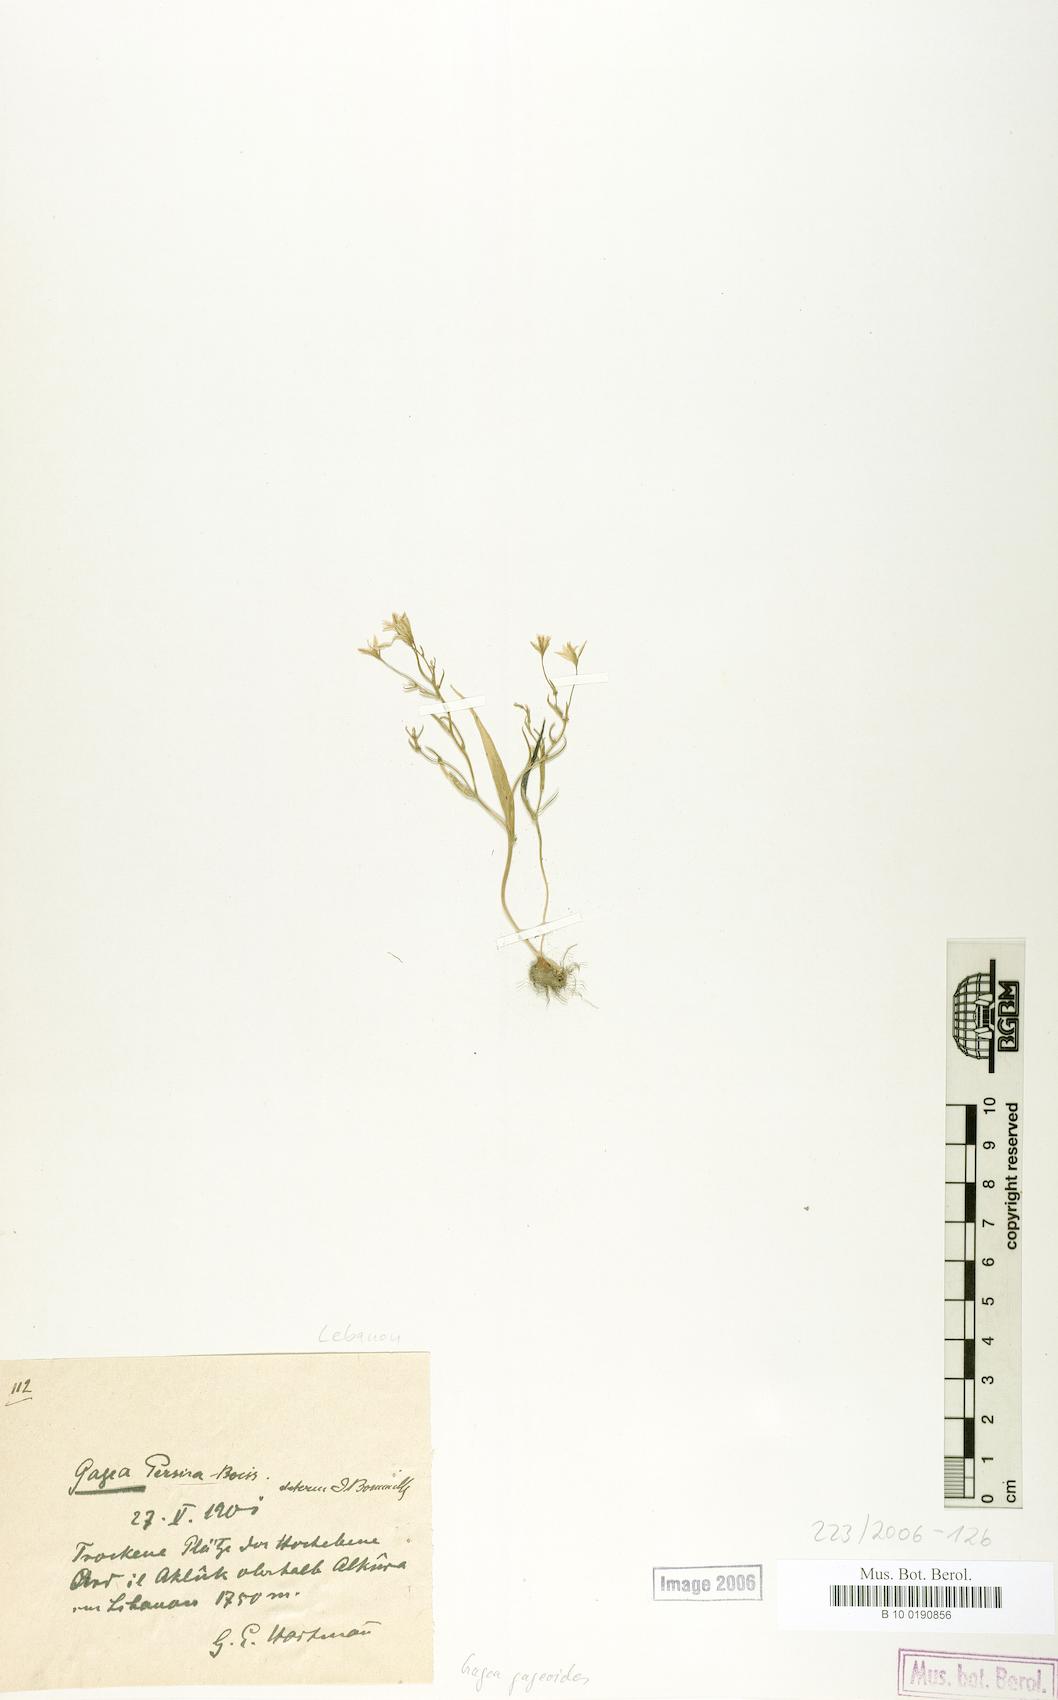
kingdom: Plantae
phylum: Tracheophyta
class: Liliopsida
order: Liliales
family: Liliaceae
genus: Gagea
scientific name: Gagea gageoides
